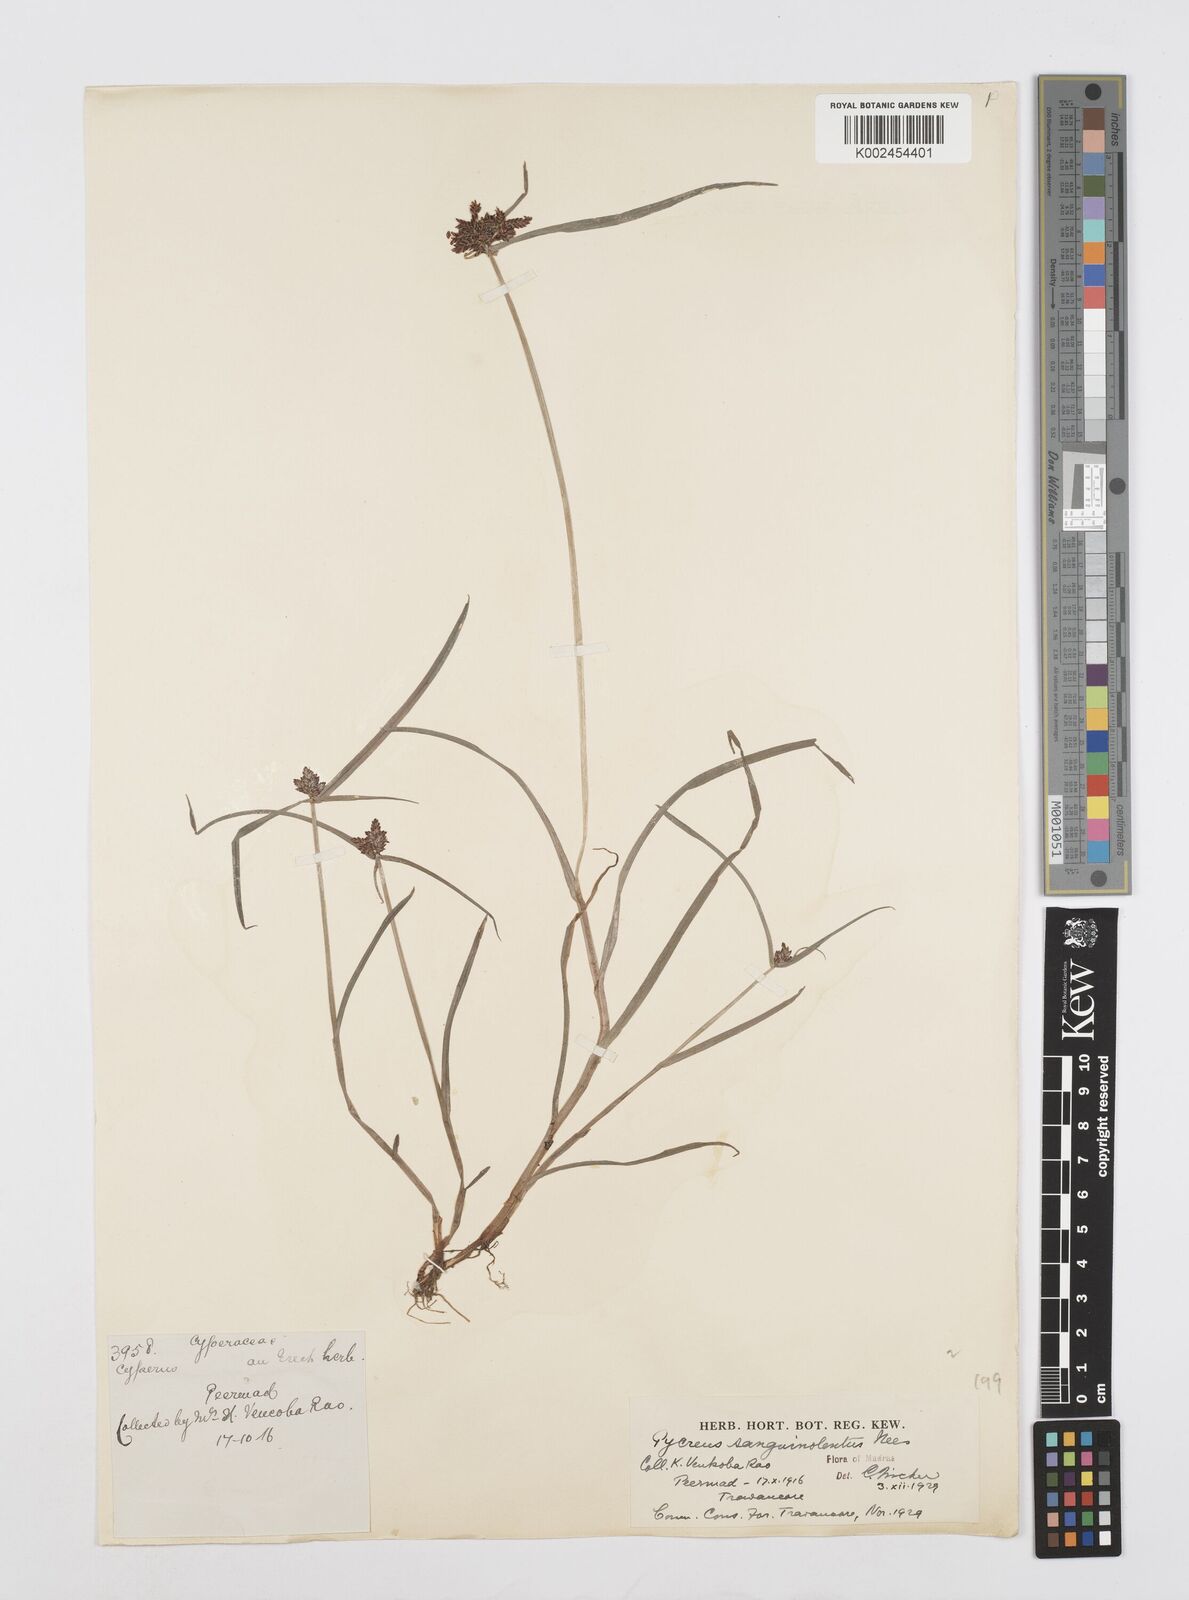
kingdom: Plantae
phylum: Tracheophyta
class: Liliopsida
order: Poales
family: Cyperaceae
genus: Cyperus
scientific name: Cyperus sanguinolentus
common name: Purpleglume flatsedge
